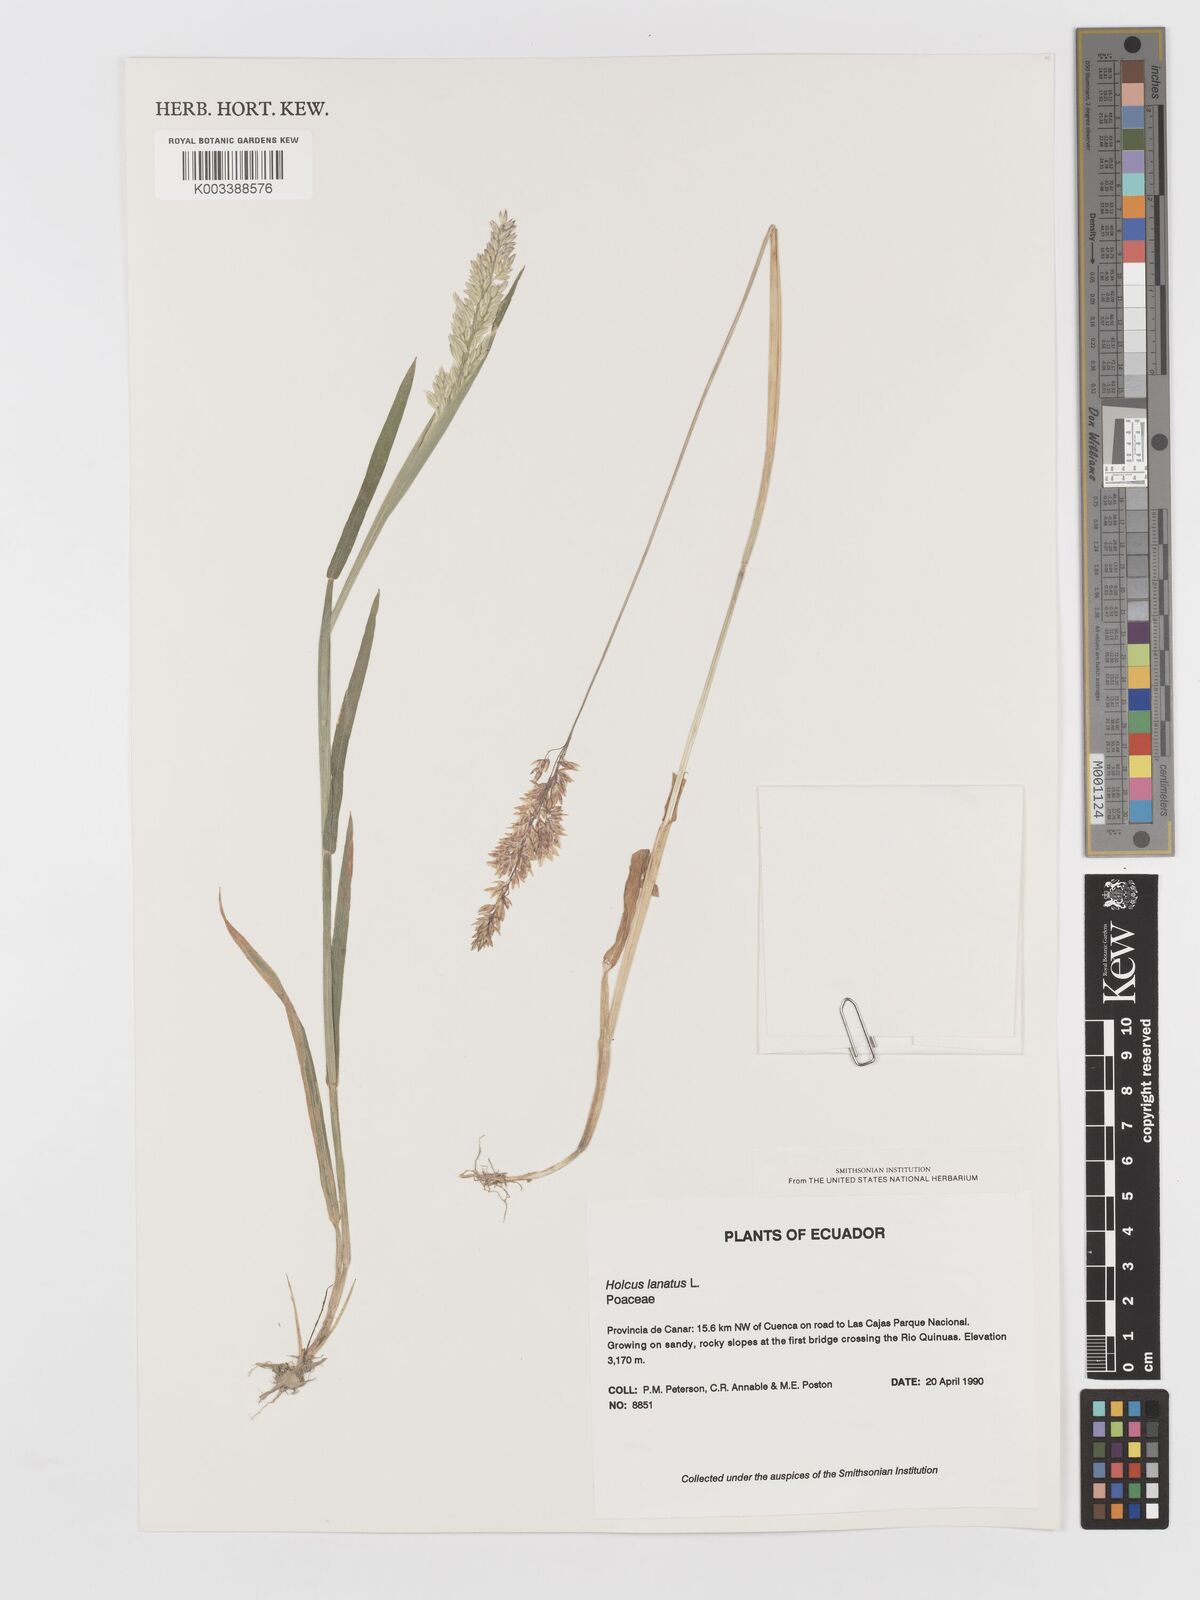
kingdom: Plantae
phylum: Tracheophyta
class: Liliopsida
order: Poales
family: Poaceae
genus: Holcus
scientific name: Holcus lanatus
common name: Yorkshire-fog
